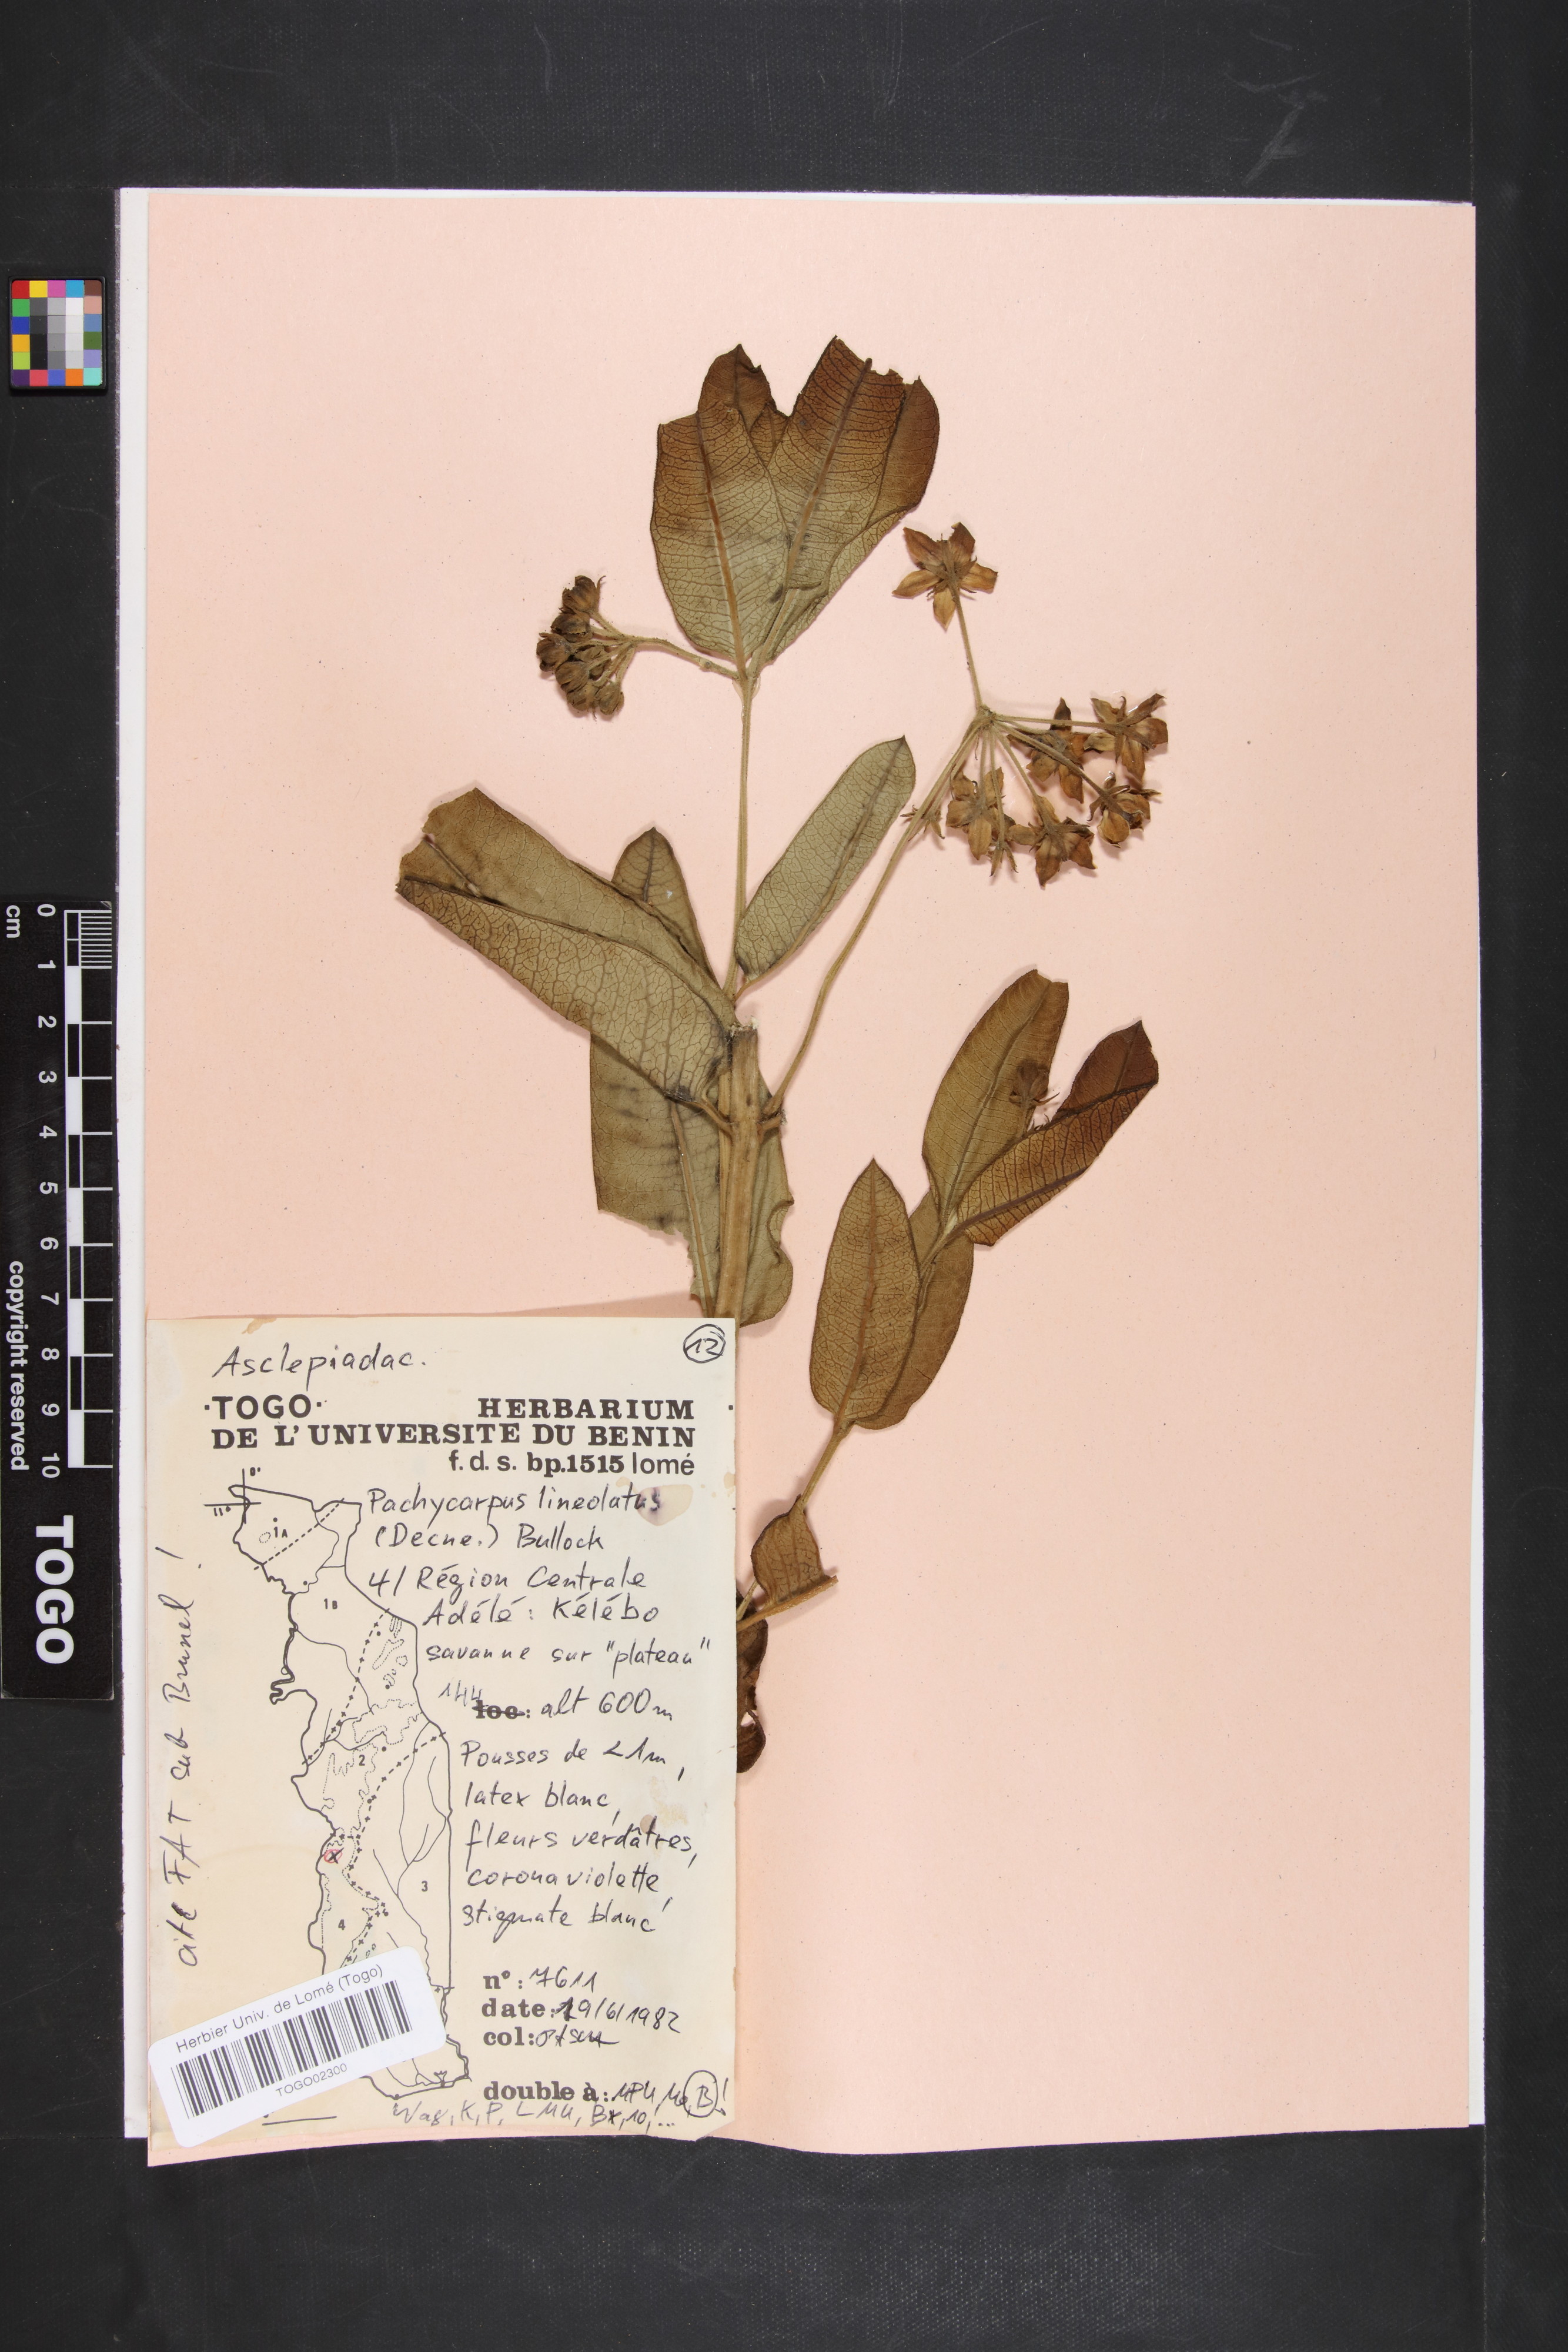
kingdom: Plantae
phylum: Tracheophyta
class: Magnoliopsida
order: Gentianales
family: Apocynaceae
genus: Pachycarpus
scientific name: Pachycarpus lineolatus
